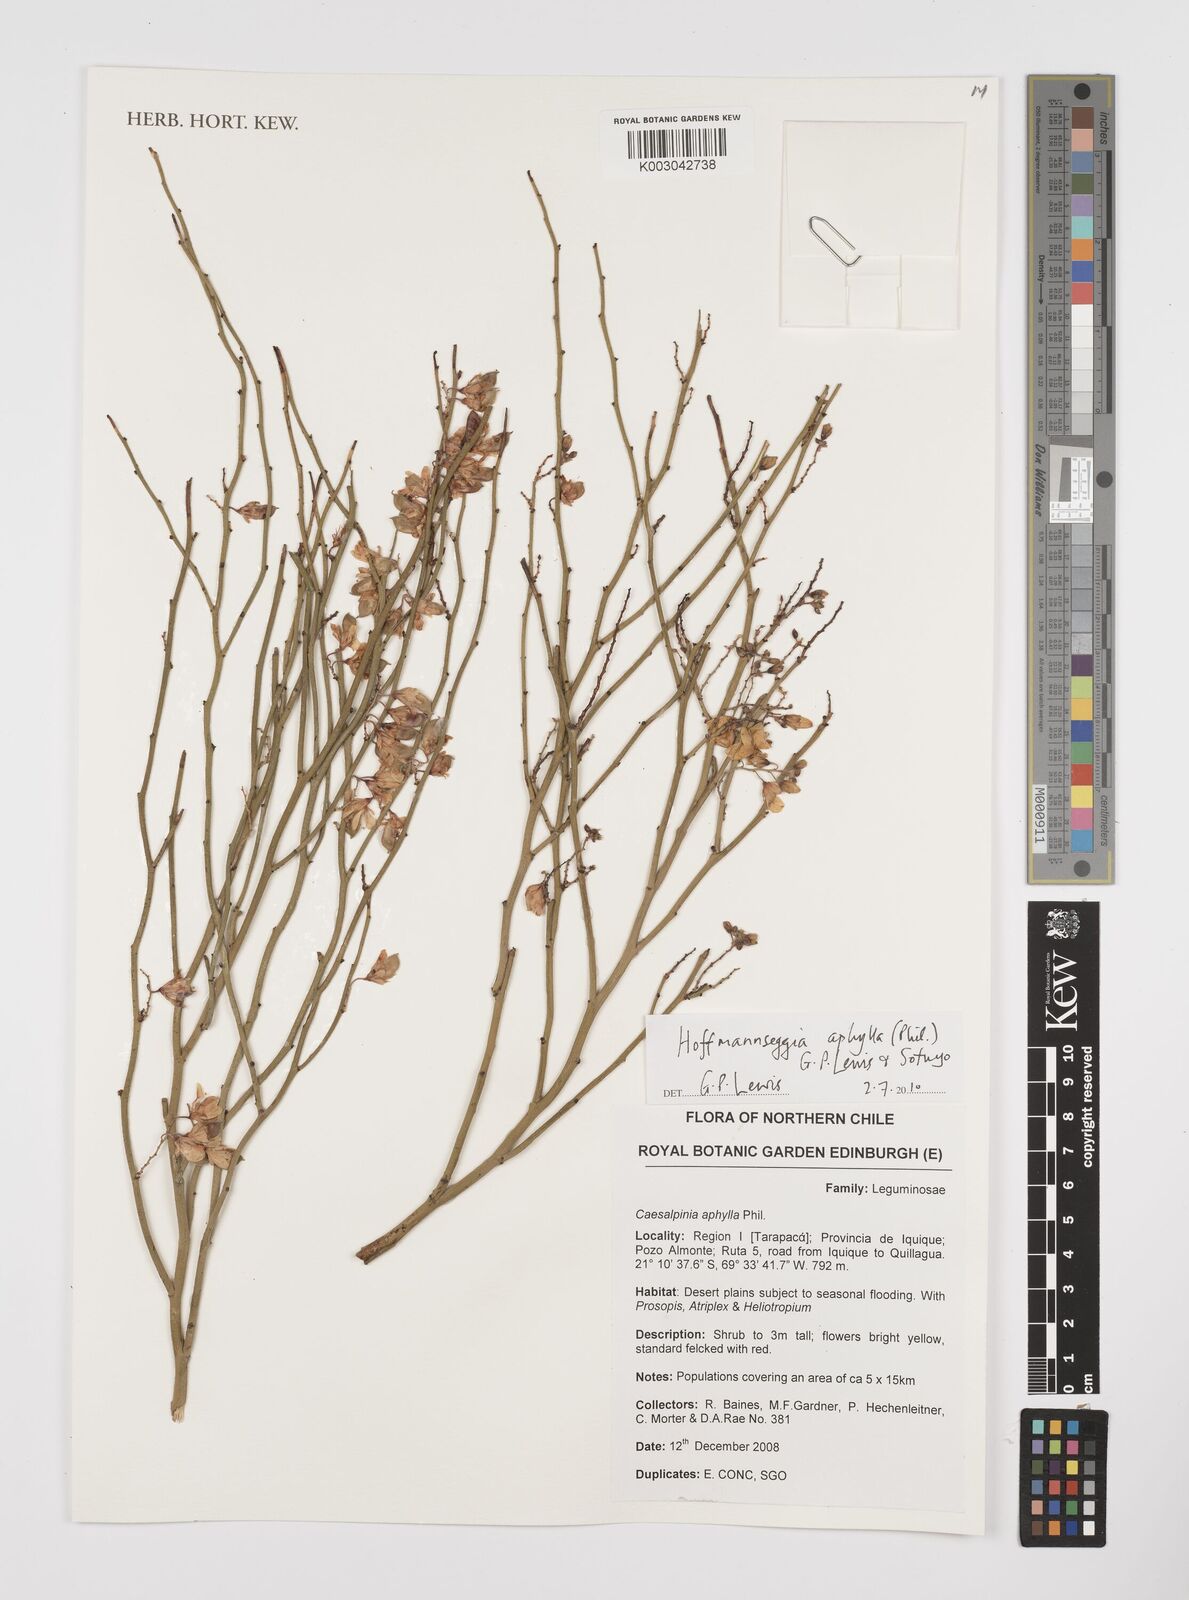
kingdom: Plantae
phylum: Tracheophyta
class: Magnoliopsida
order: Fabales
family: Fabaceae
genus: Hoffmannseggia
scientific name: Hoffmannseggia aphylla
